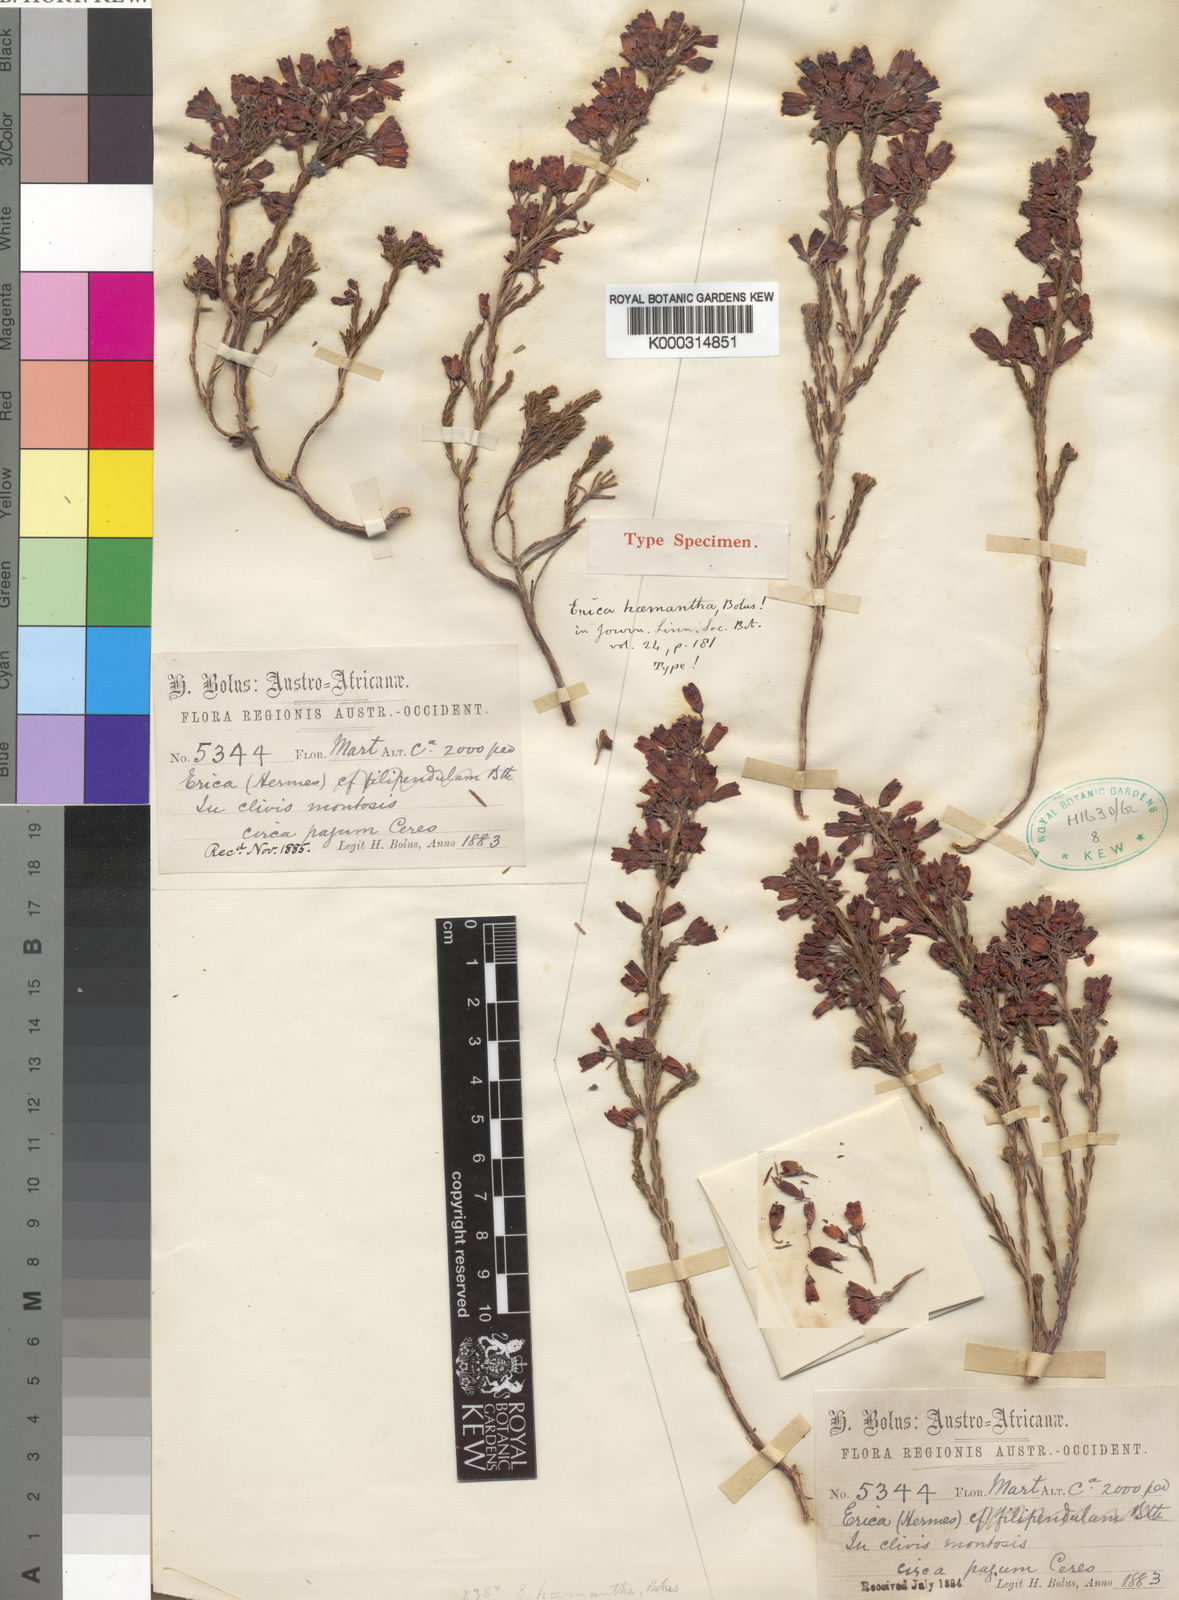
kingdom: Plantae
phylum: Tracheophyta
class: Magnoliopsida
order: Ericales
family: Ericaceae
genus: Erica
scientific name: Erica lateralis
